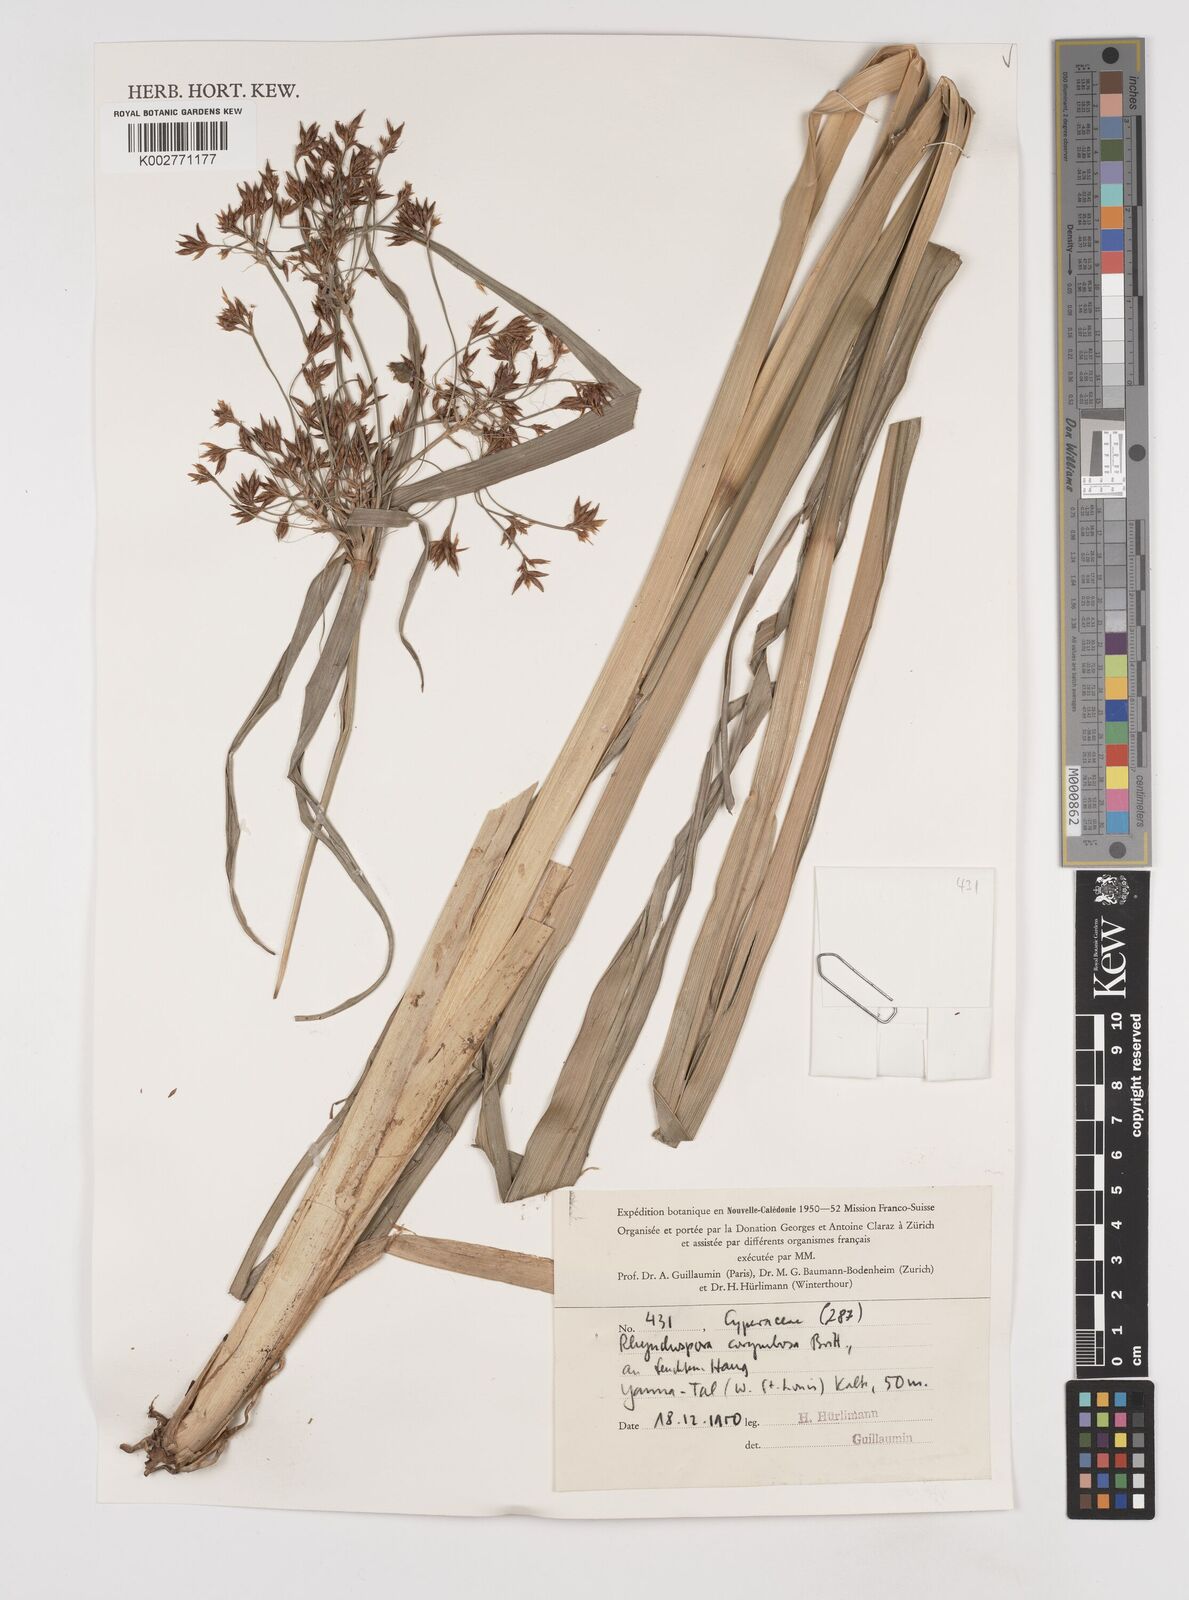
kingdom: Plantae
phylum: Tracheophyta
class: Liliopsida
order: Poales
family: Cyperaceae
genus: Rhynchospora
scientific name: Rhynchospora corymbosa
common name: Golden beak sedge
